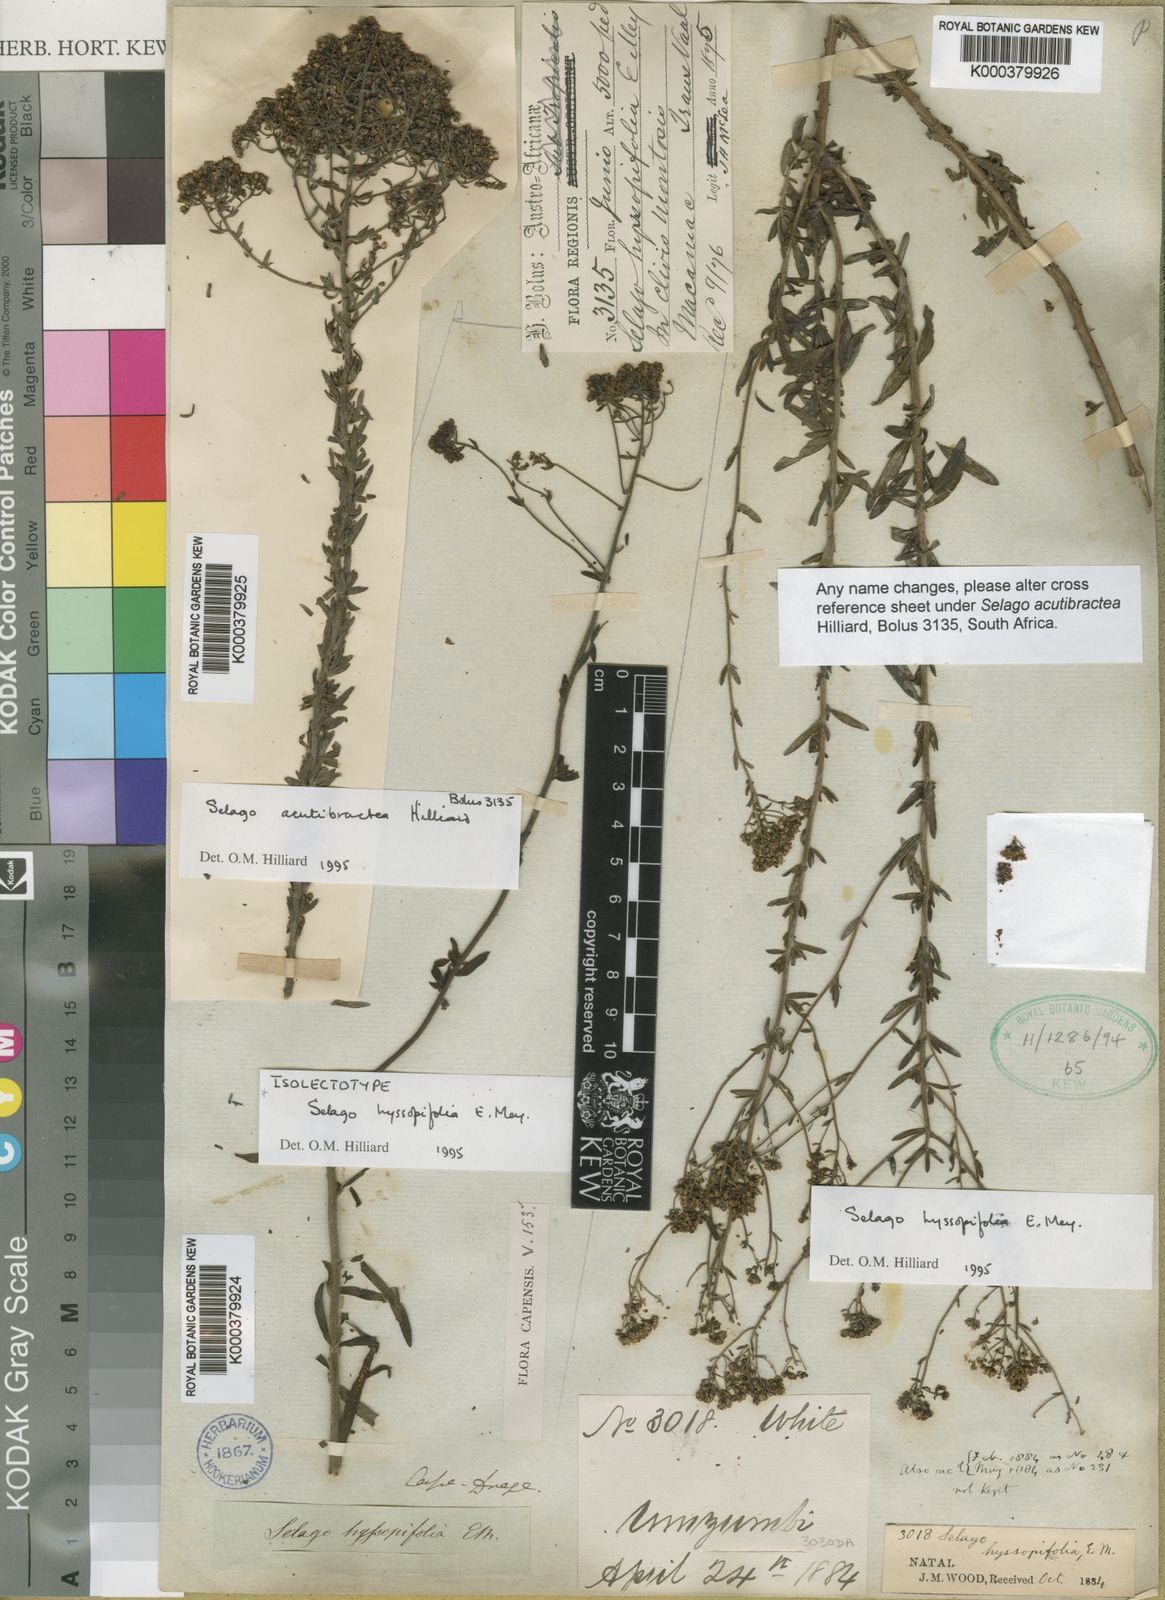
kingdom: Plantae
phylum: Tracheophyta
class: Magnoliopsida
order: Lamiales
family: Scrophulariaceae
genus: Selago
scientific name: Selago hyssopifolia
